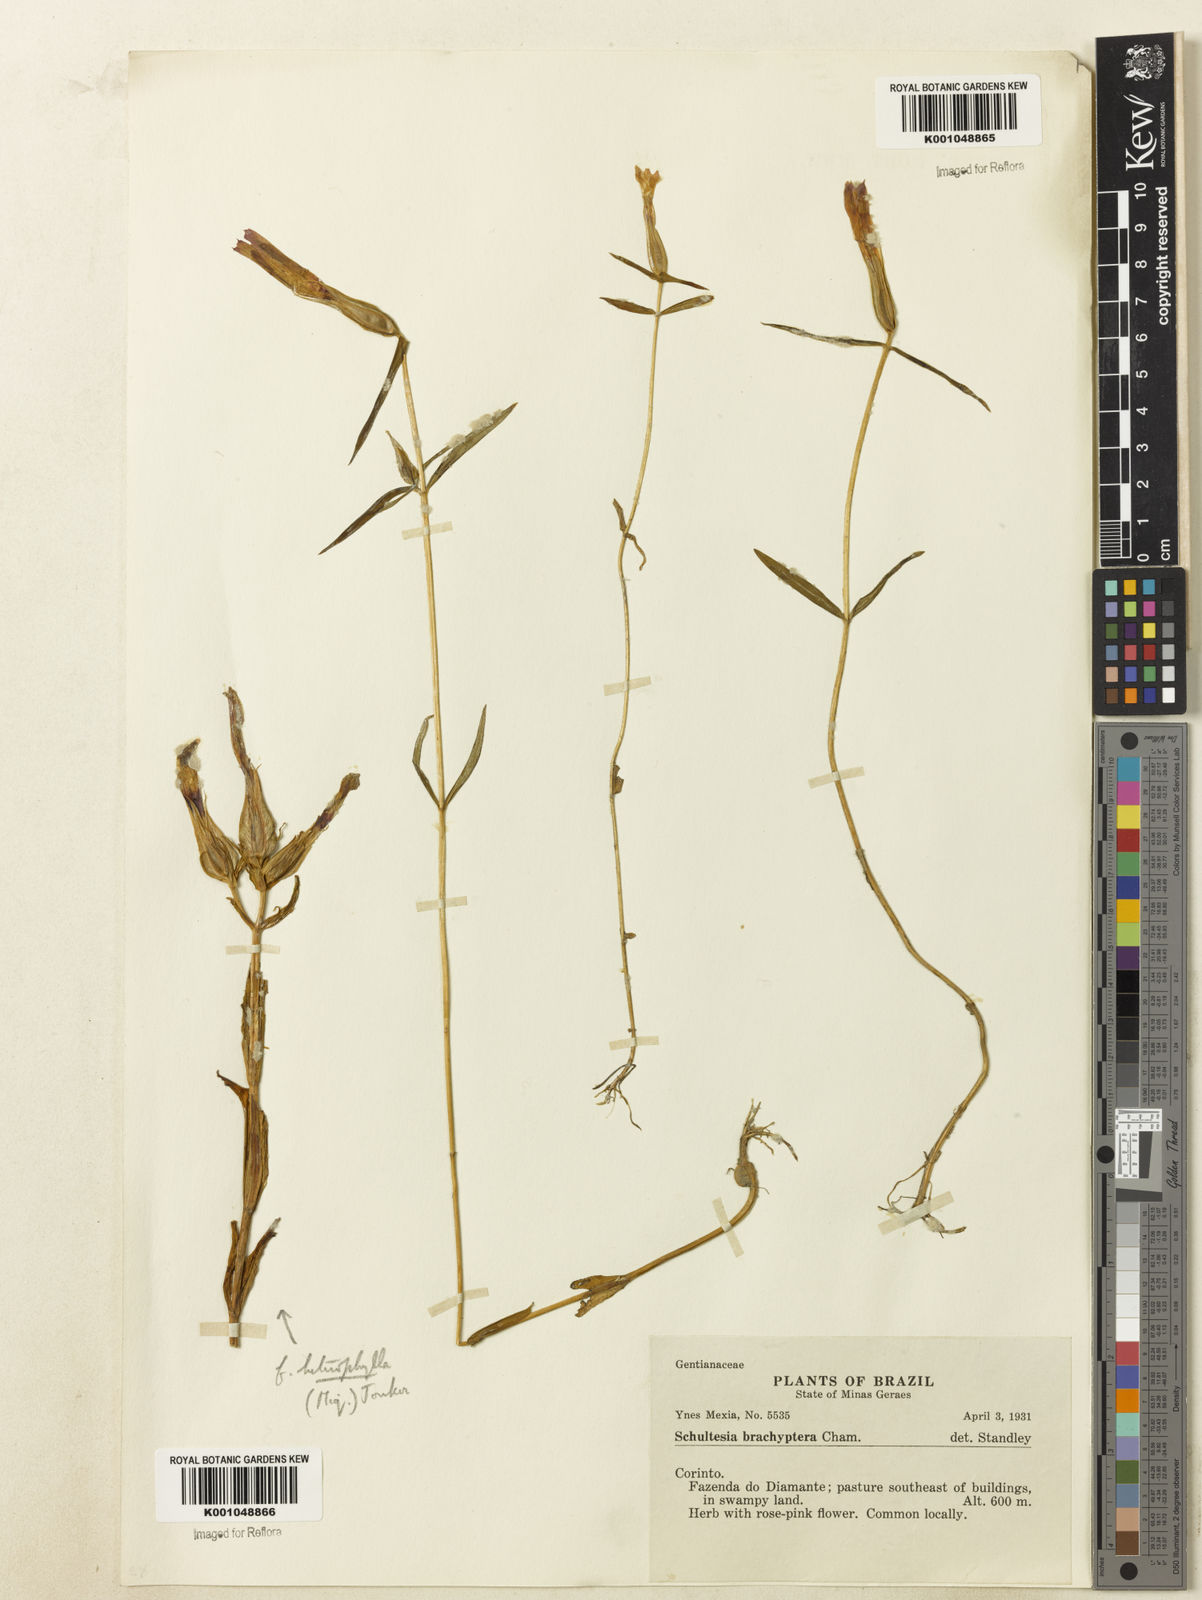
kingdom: Plantae
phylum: Tracheophyta
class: Magnoliopsida
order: Gentianales
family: Gentianaceae
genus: Schultesia
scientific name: Schultesia brachyptera
